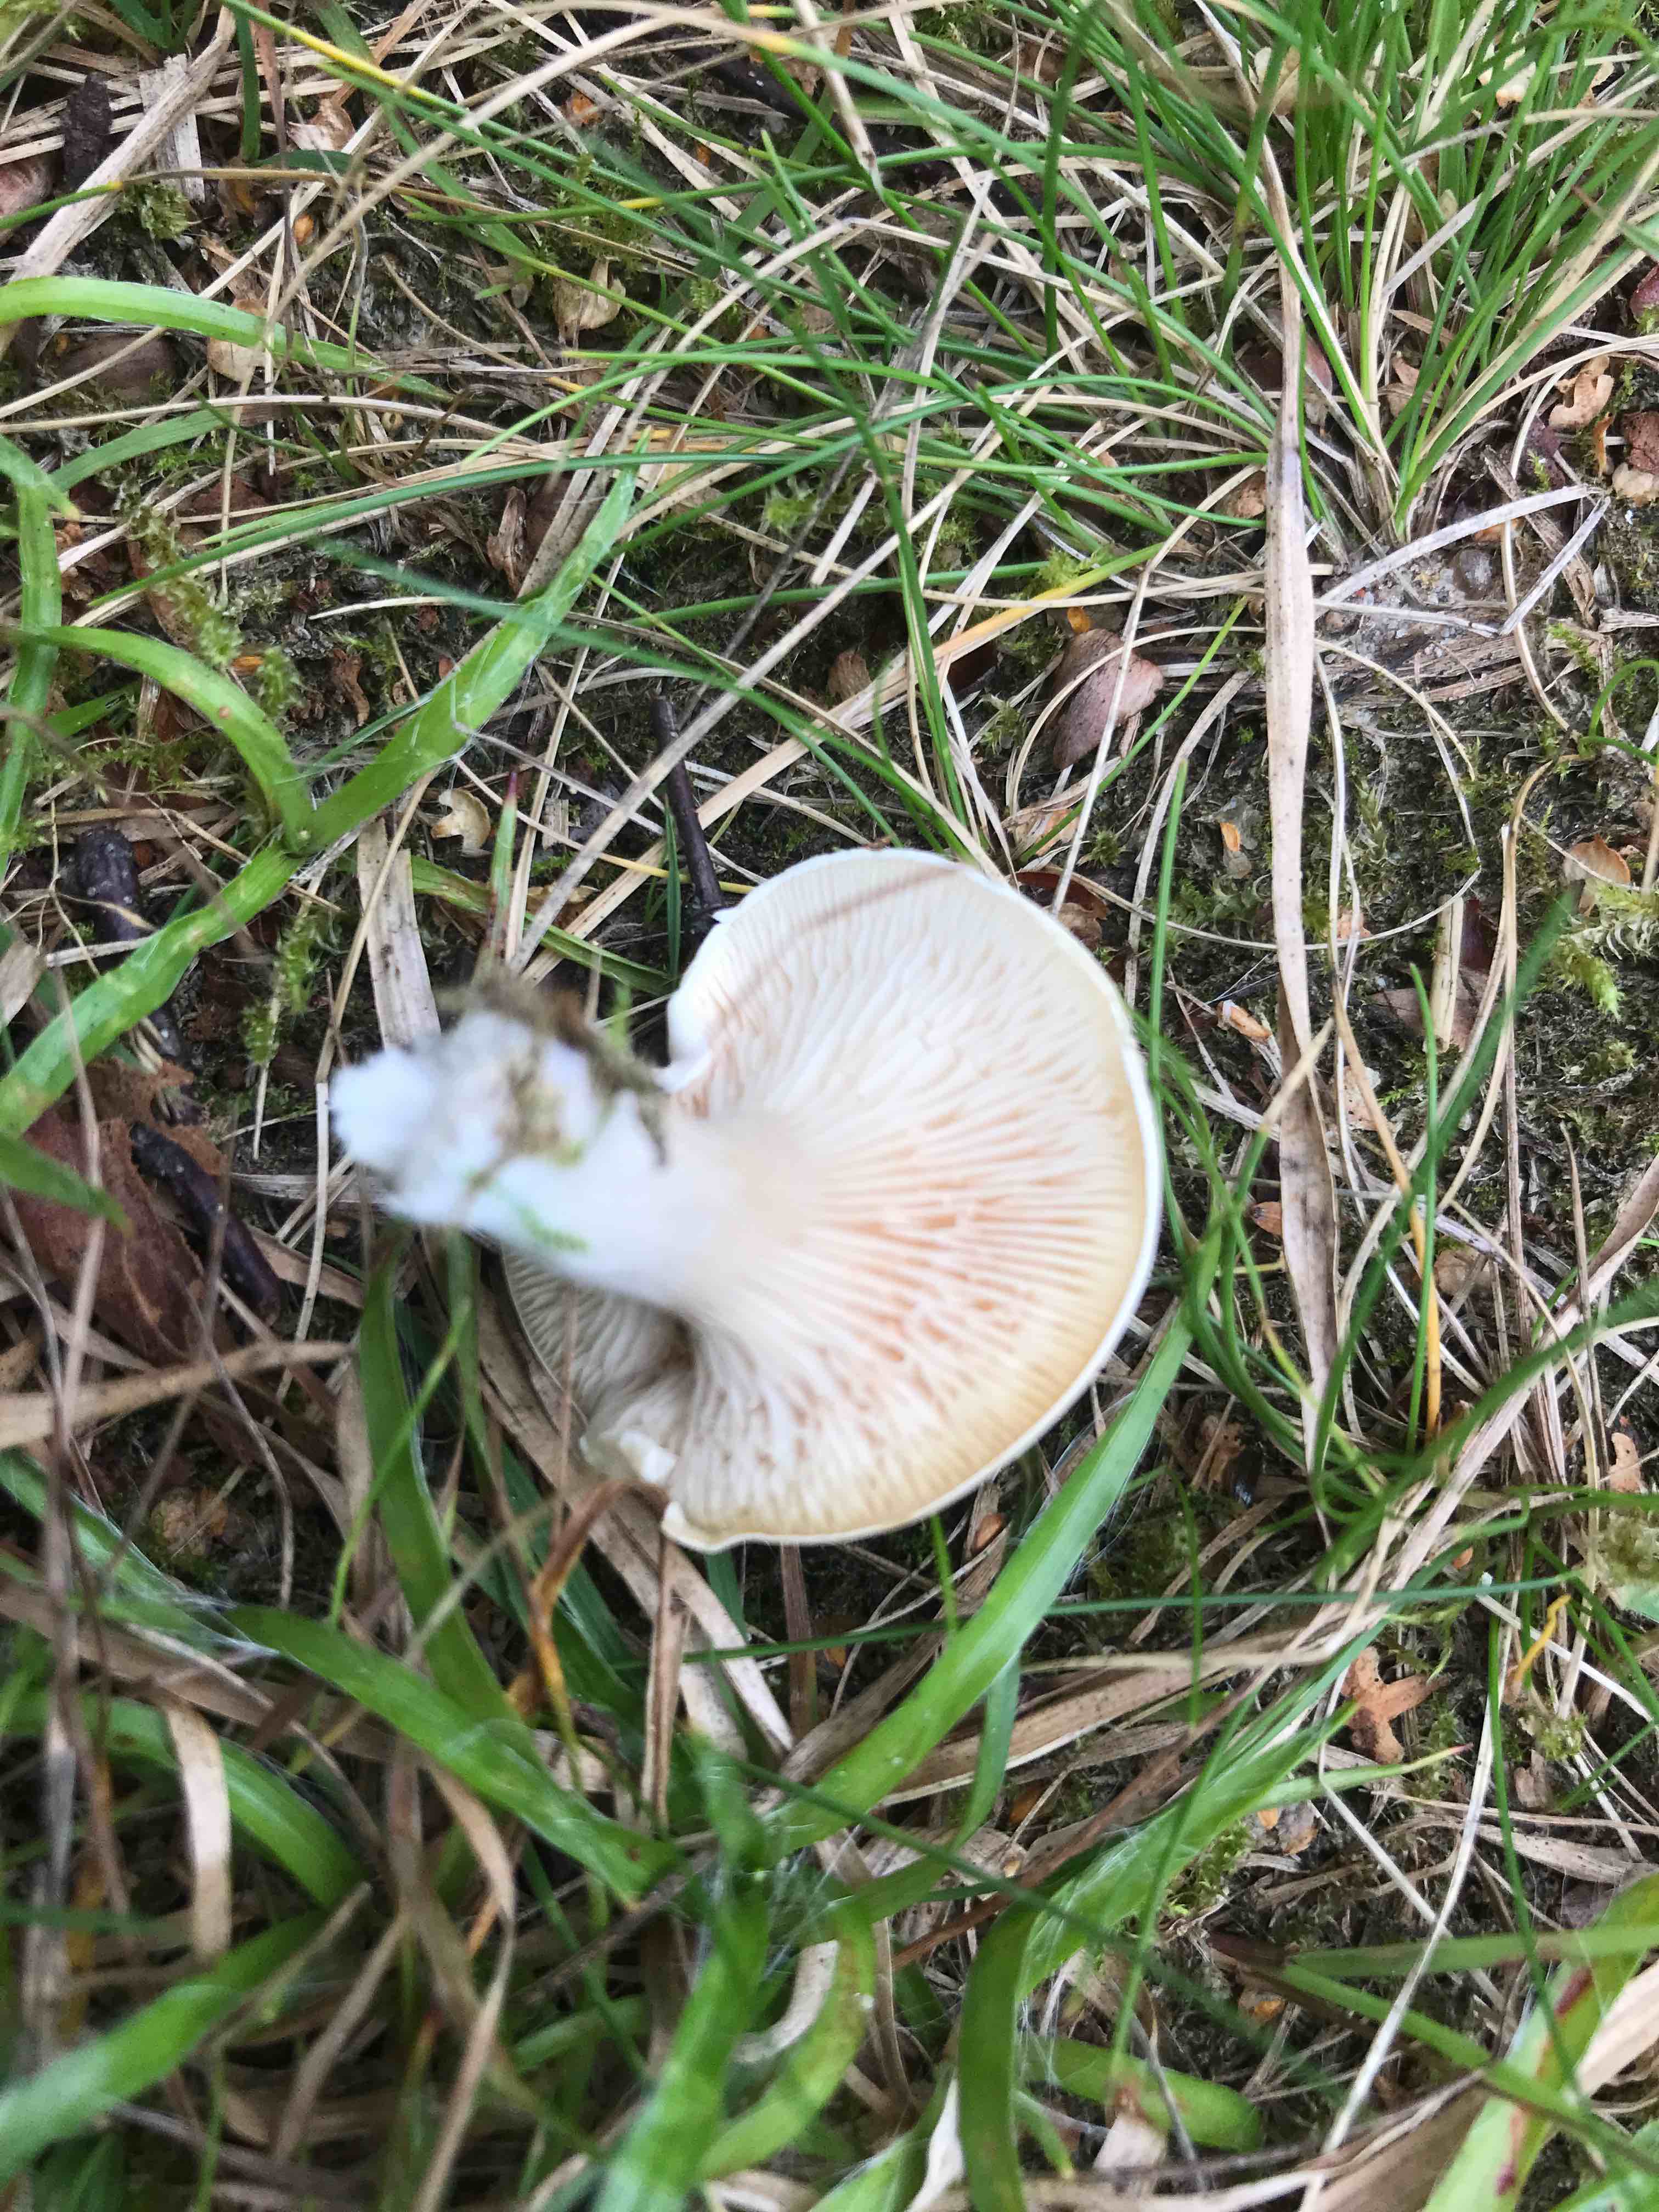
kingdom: Fungi
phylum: Basidiomycota
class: Agaricomycetes
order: Agaricales
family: Entolomataceae
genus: Clitopilus
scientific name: Clitopilus prunulus
